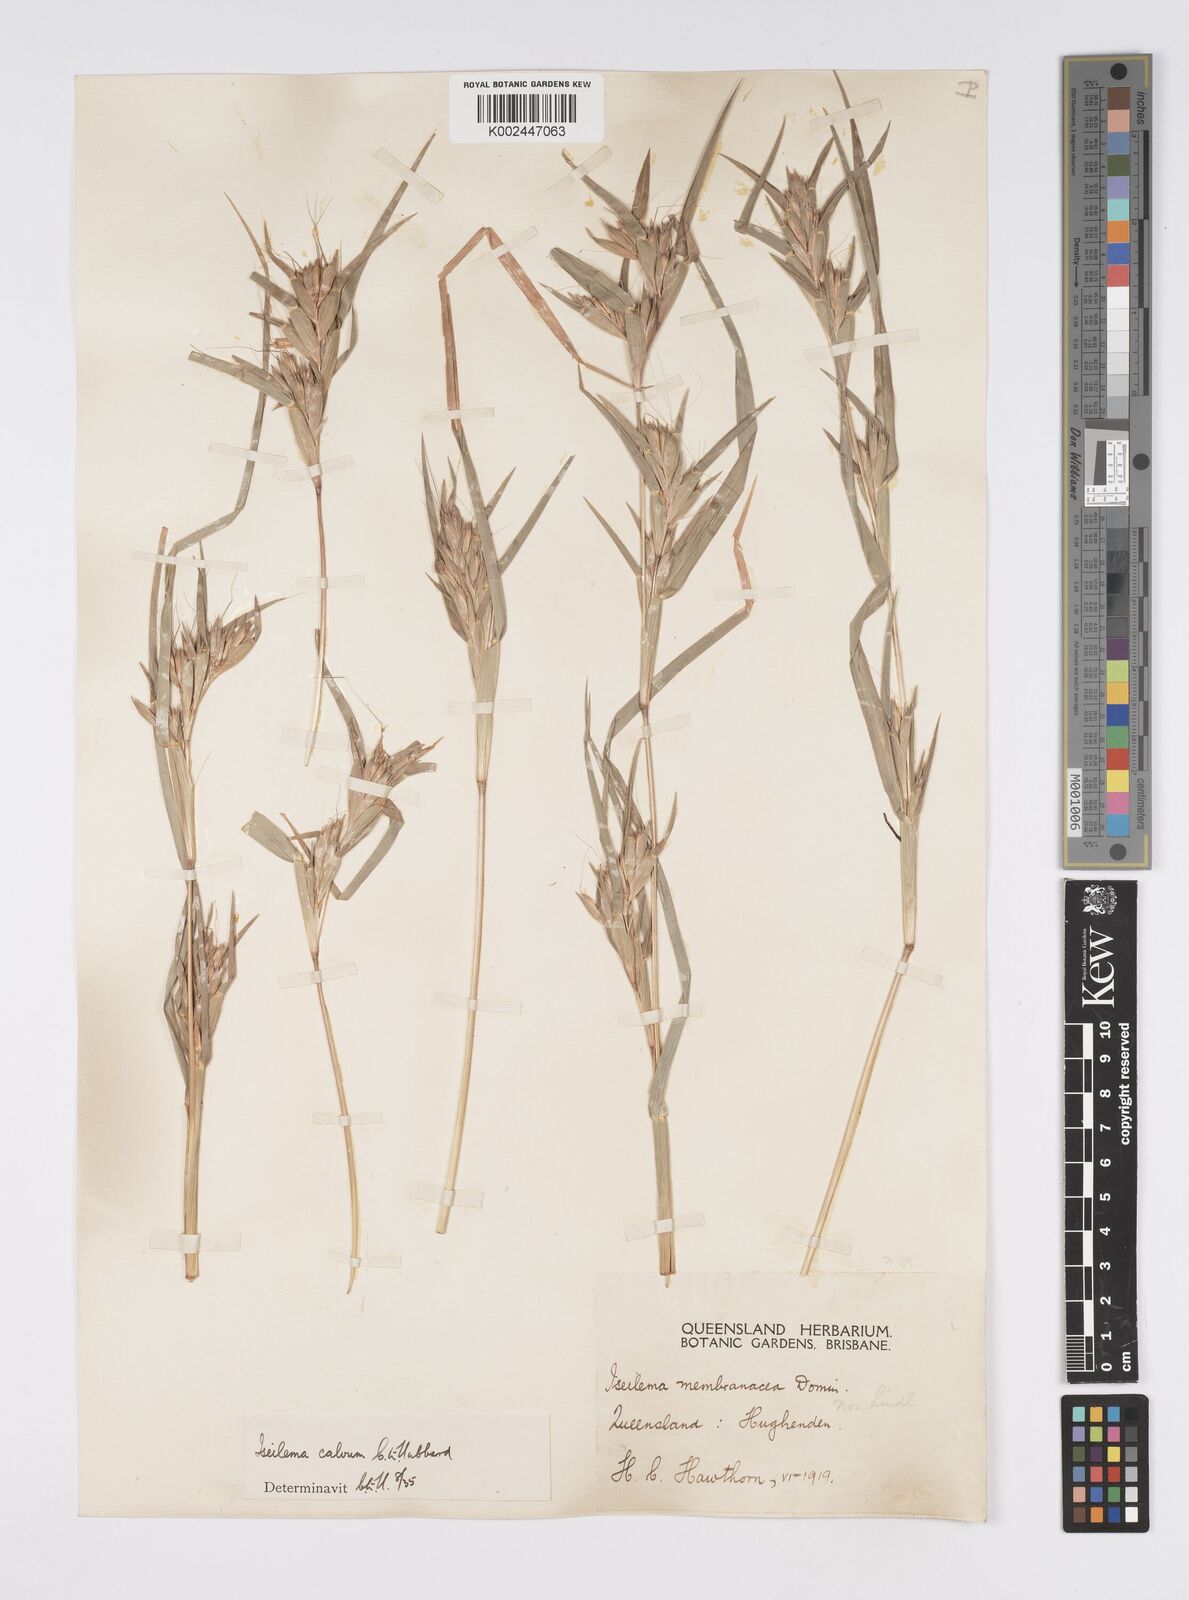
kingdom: Plantae
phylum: Tracheophyta
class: Liliopsida
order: Poales
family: Poaceae
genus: Iseilema
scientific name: Iseilema calvum
